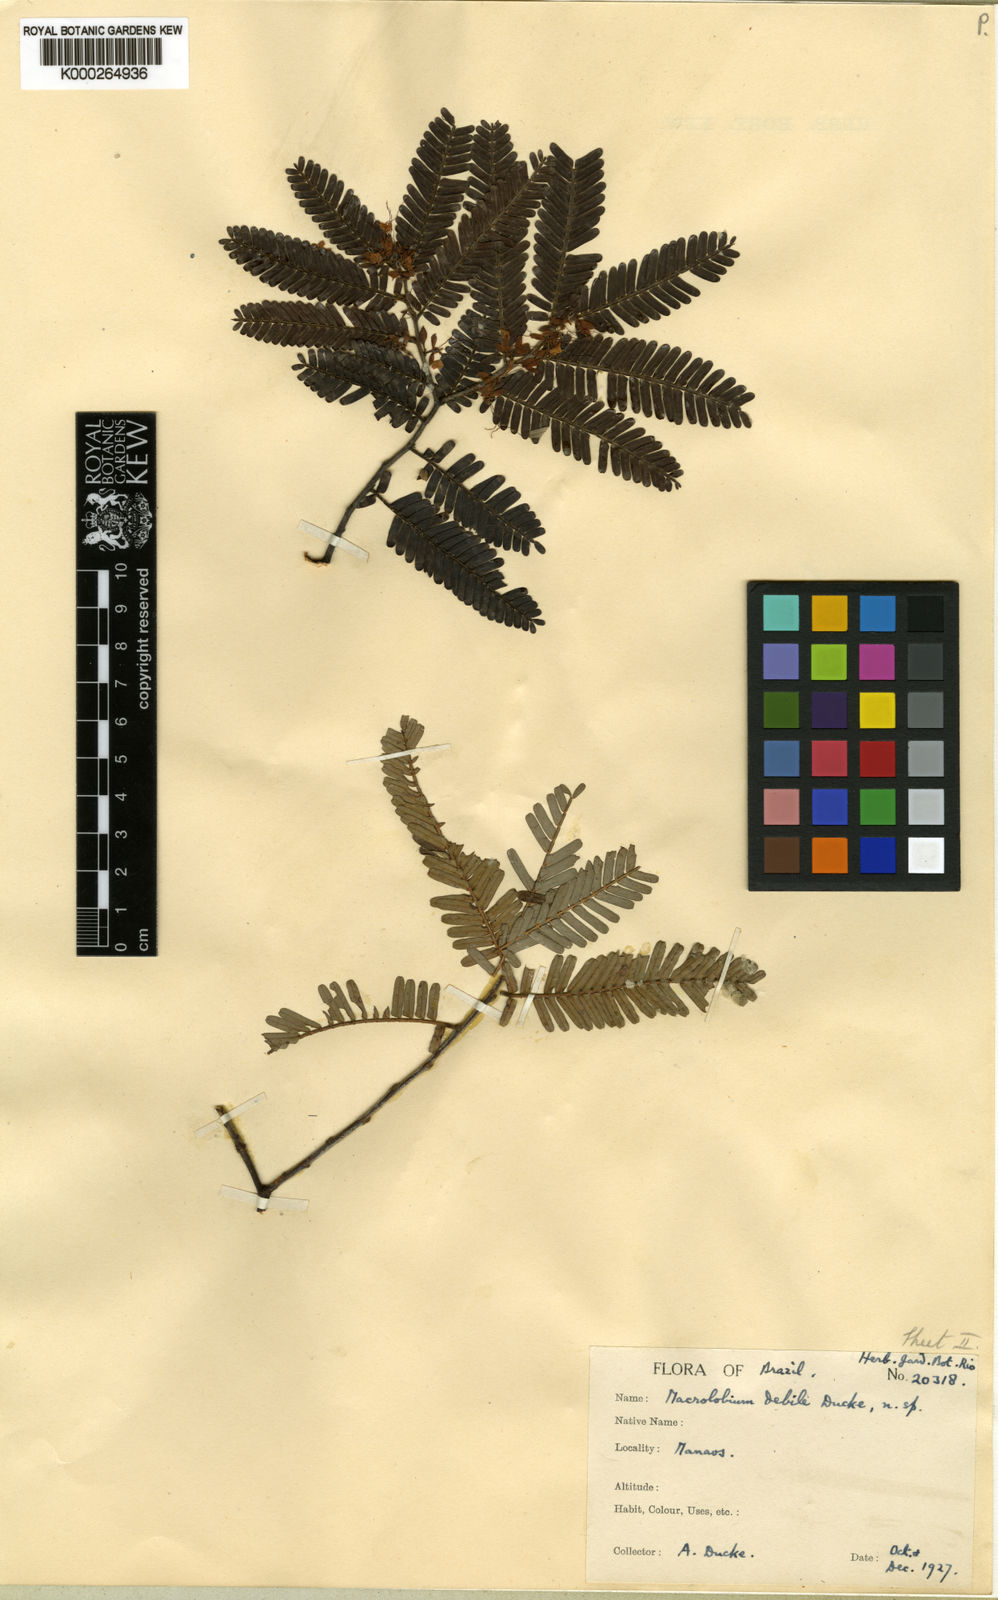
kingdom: Plantae
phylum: Tracheophyta
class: Magnoliopsida
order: Fabales
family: Fabaceae
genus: Macrolobium
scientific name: Macrolobium gracile
